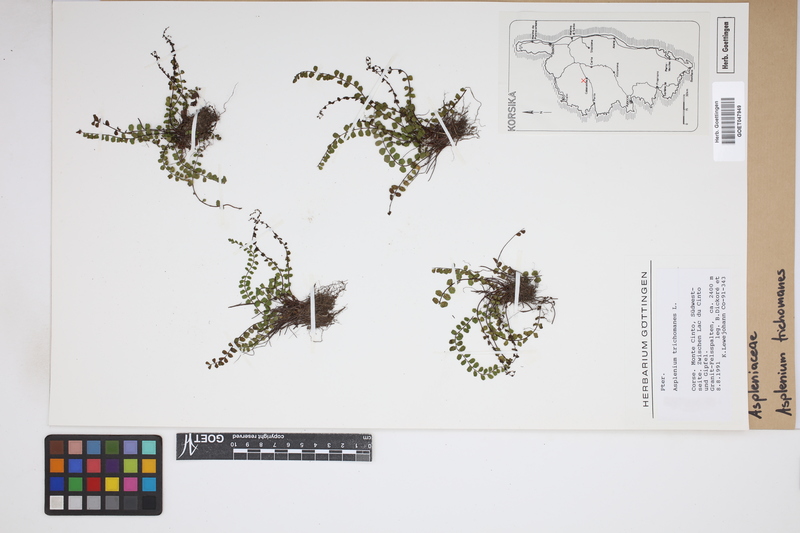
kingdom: Plantae
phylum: Tracheophyta
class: Polypodiopsida
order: Polypodiales
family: Aspleniaceae
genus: Asplenium
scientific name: Asplenium trichomanes
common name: Maidenhair spleenwort
